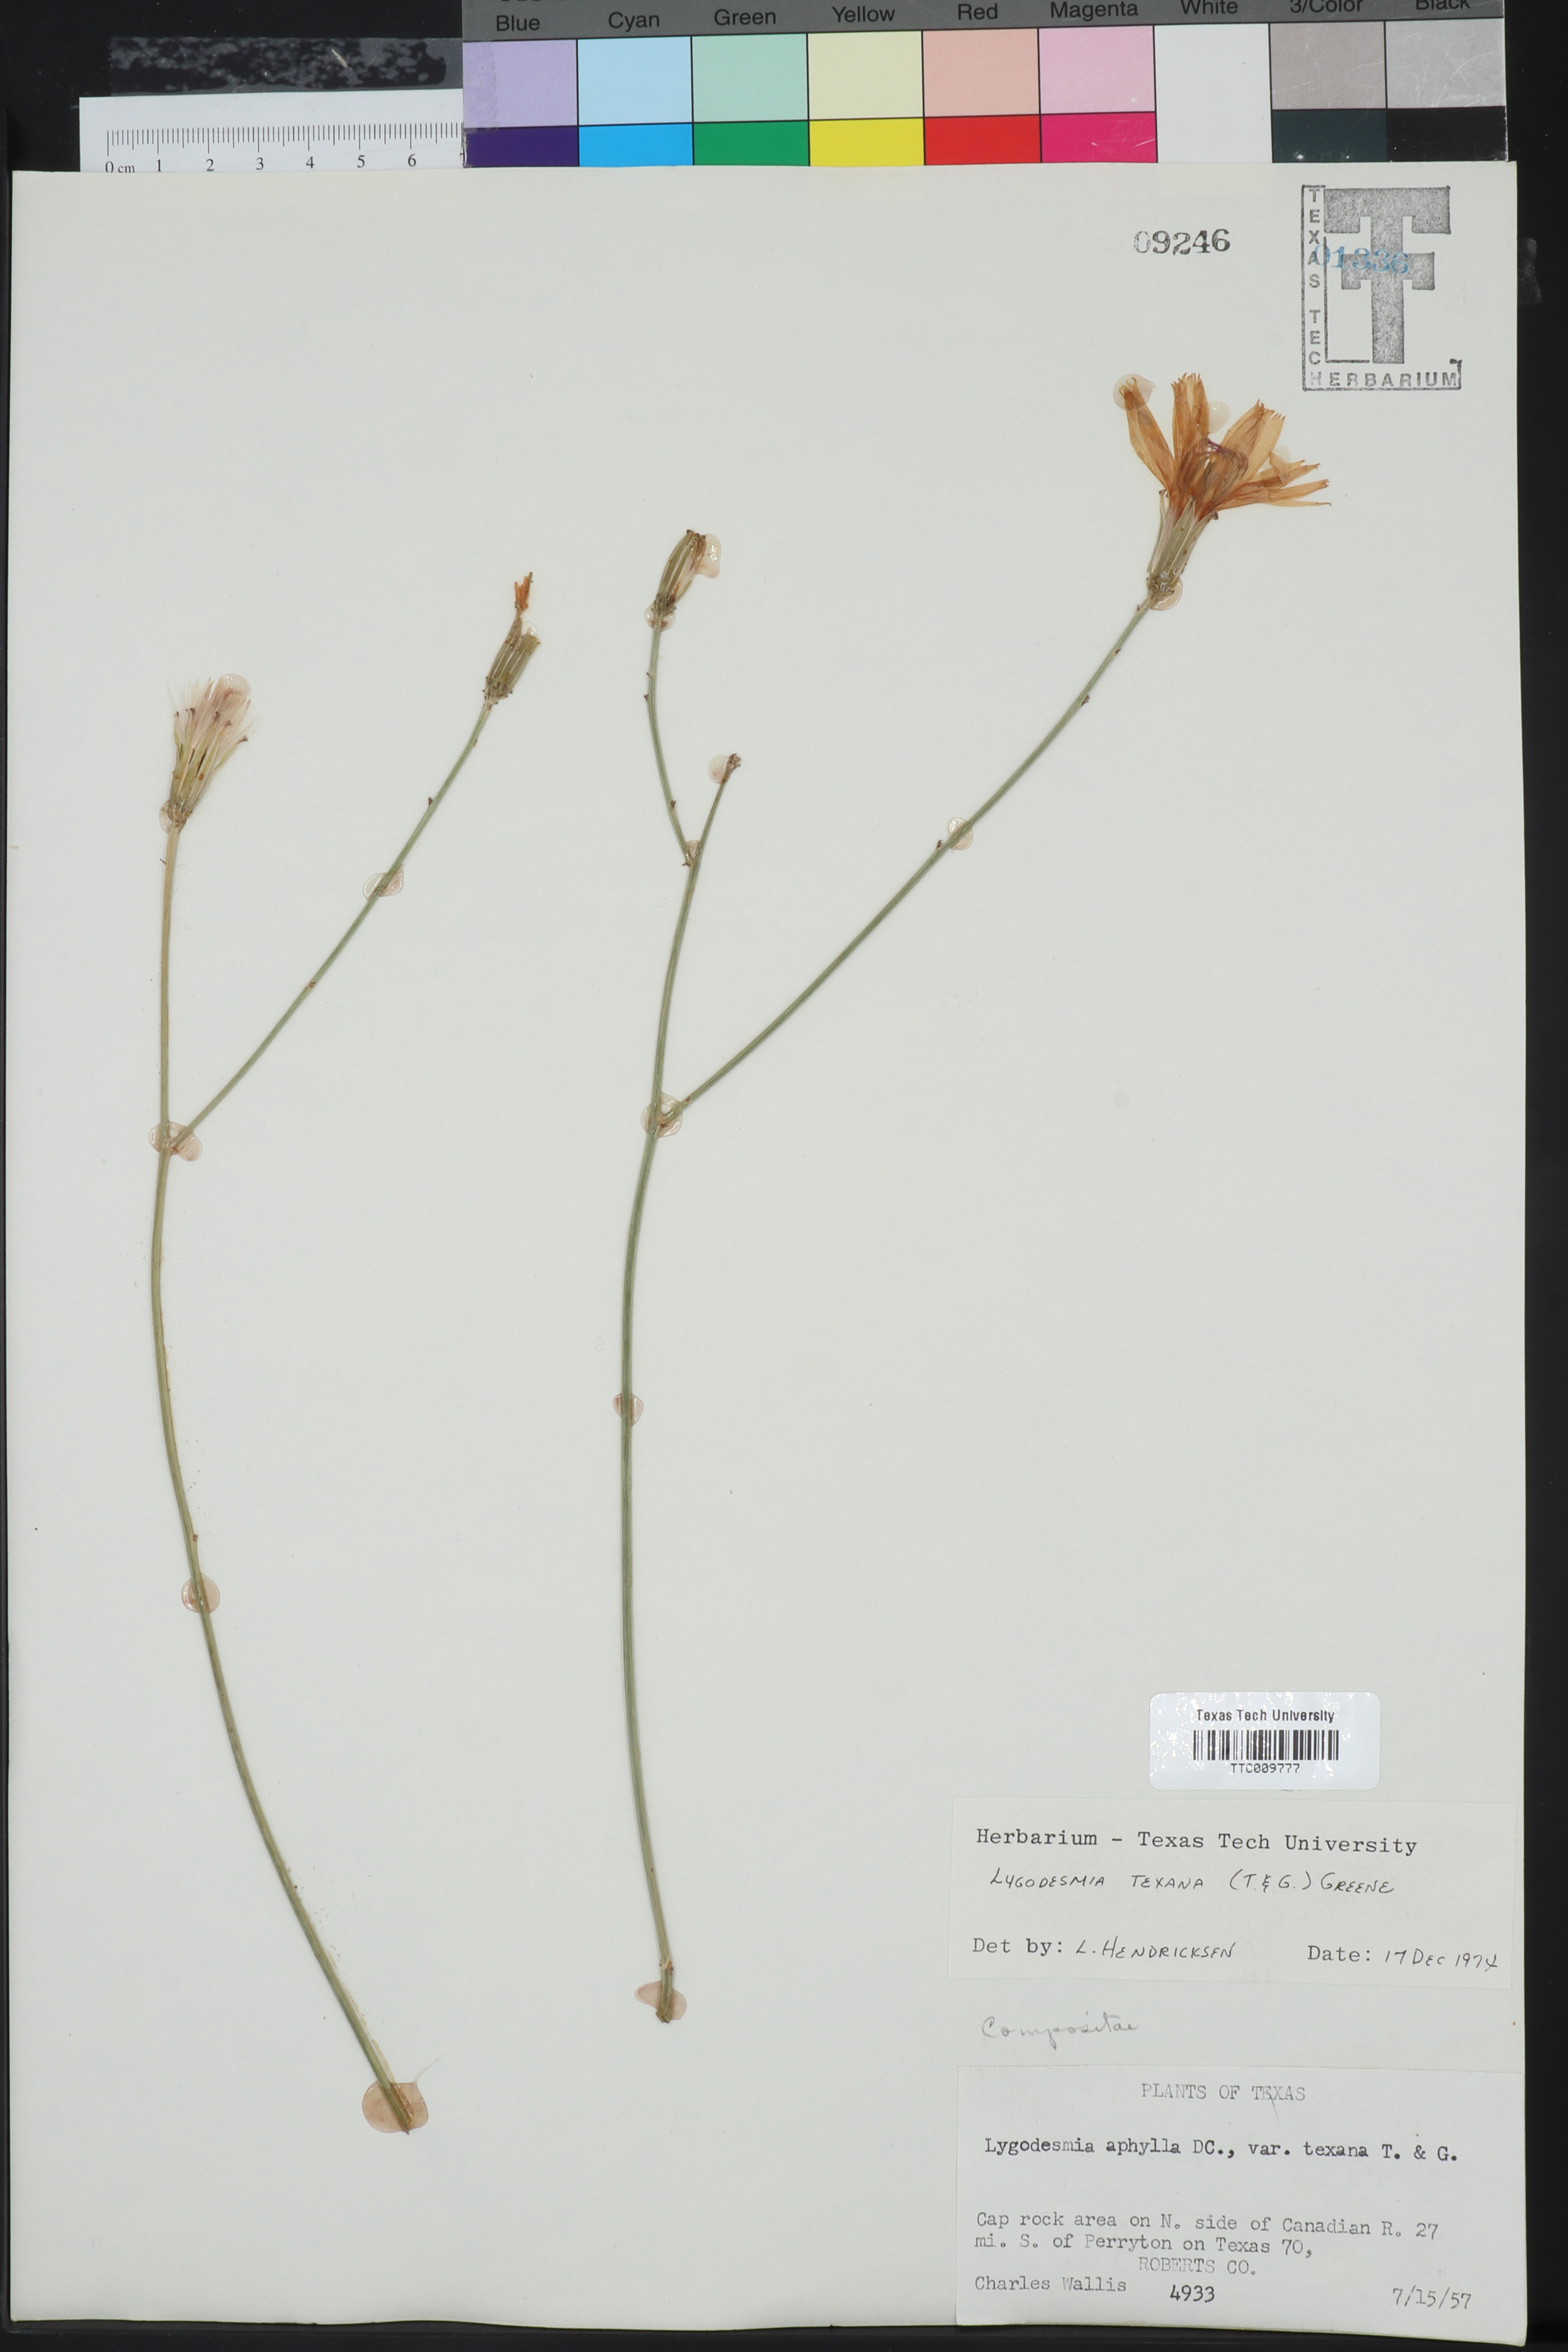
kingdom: Plantae
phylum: Tracheophyta
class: Magnoliopsida
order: Asterales
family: Asteraceae
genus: Lygodesmia
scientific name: Lygodesmia texana
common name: Texas skeleton-plant
